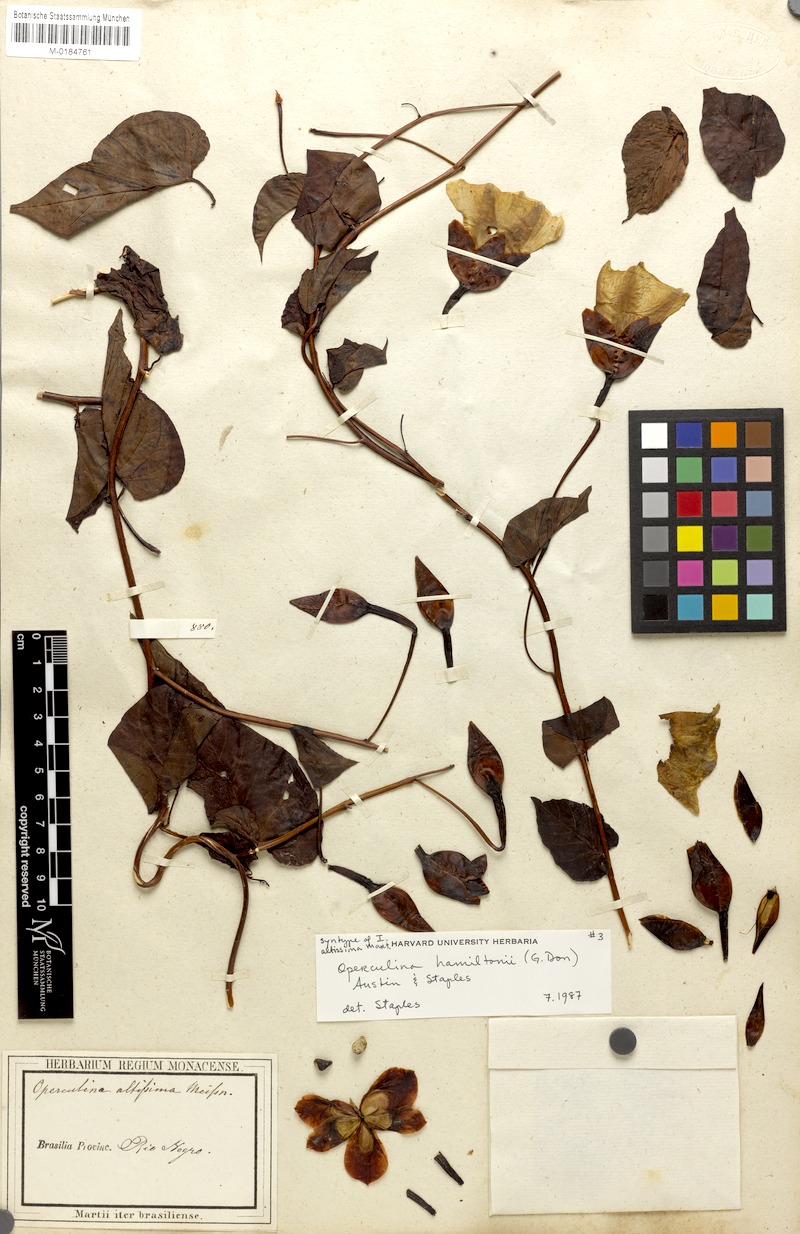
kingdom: Plantae
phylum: Tracheophyta
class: Magnoliopsida
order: Solanales
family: Convolvulaceae
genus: Operculina
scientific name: Operculina hamiltonii
